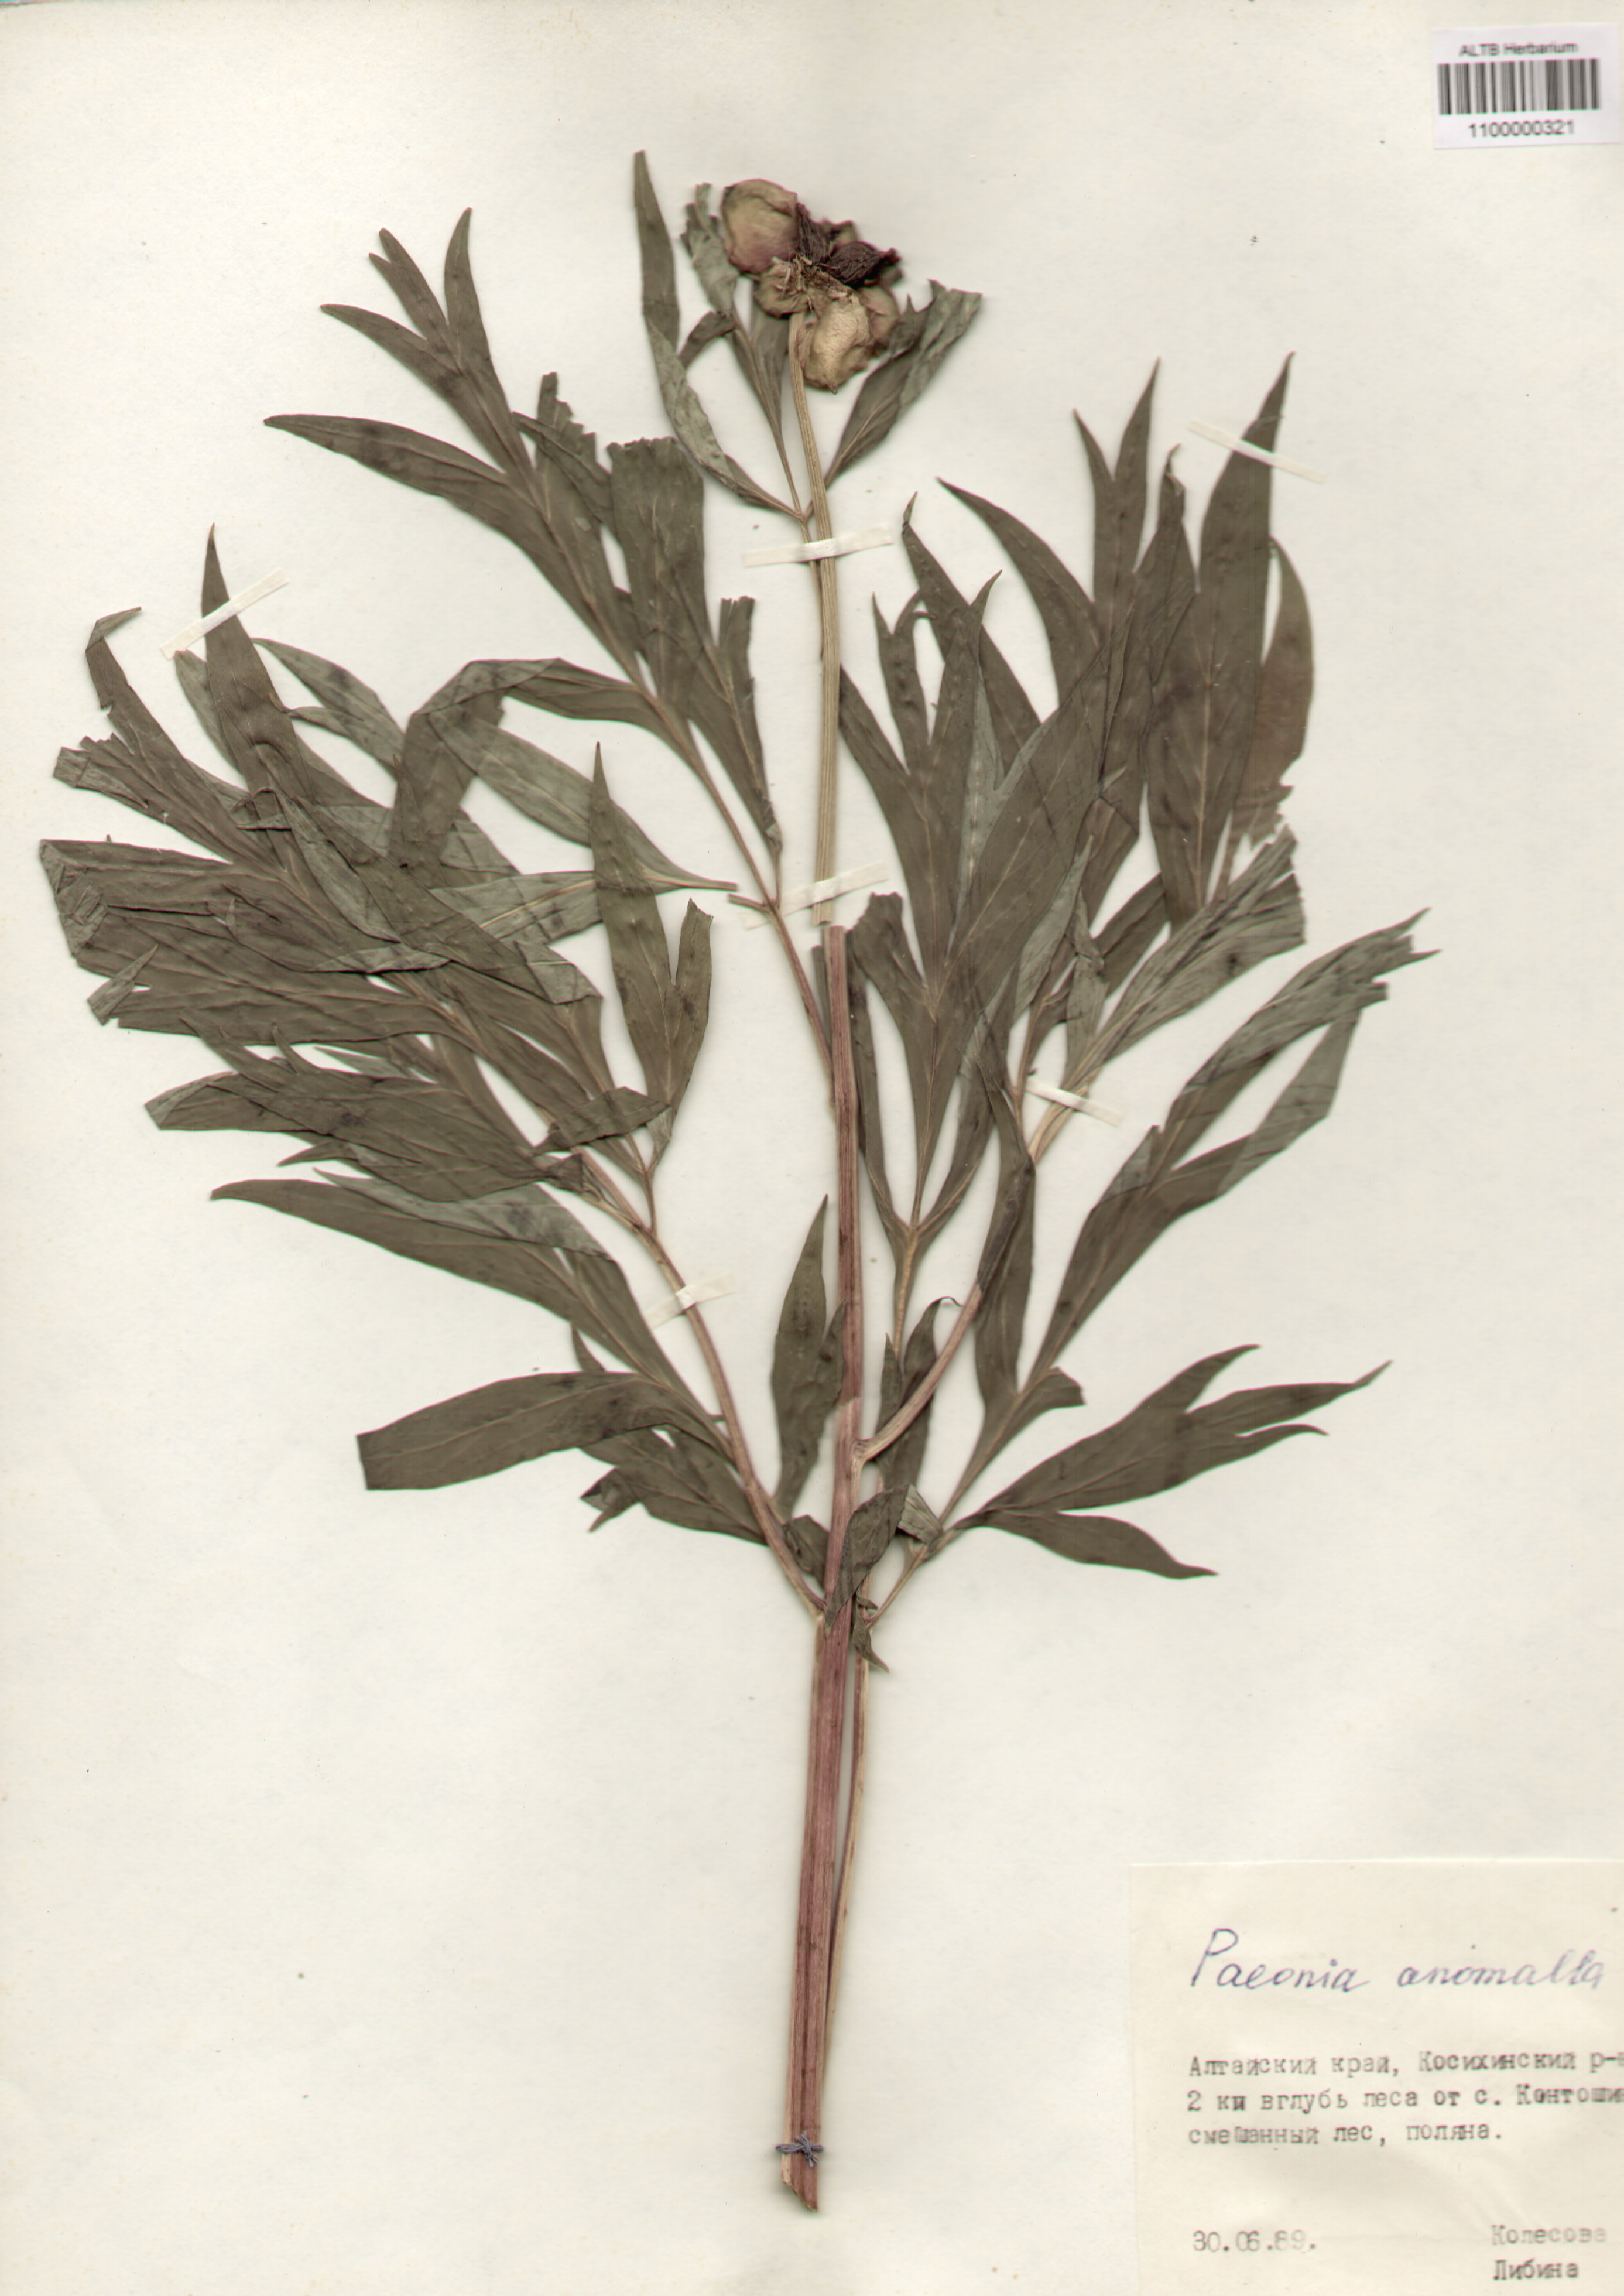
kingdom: Plantae
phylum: Tracheophyta
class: Magnoliopsida
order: Saxifragales
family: Paeoniaceae
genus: Paeonia
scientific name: Paeonia anomala
